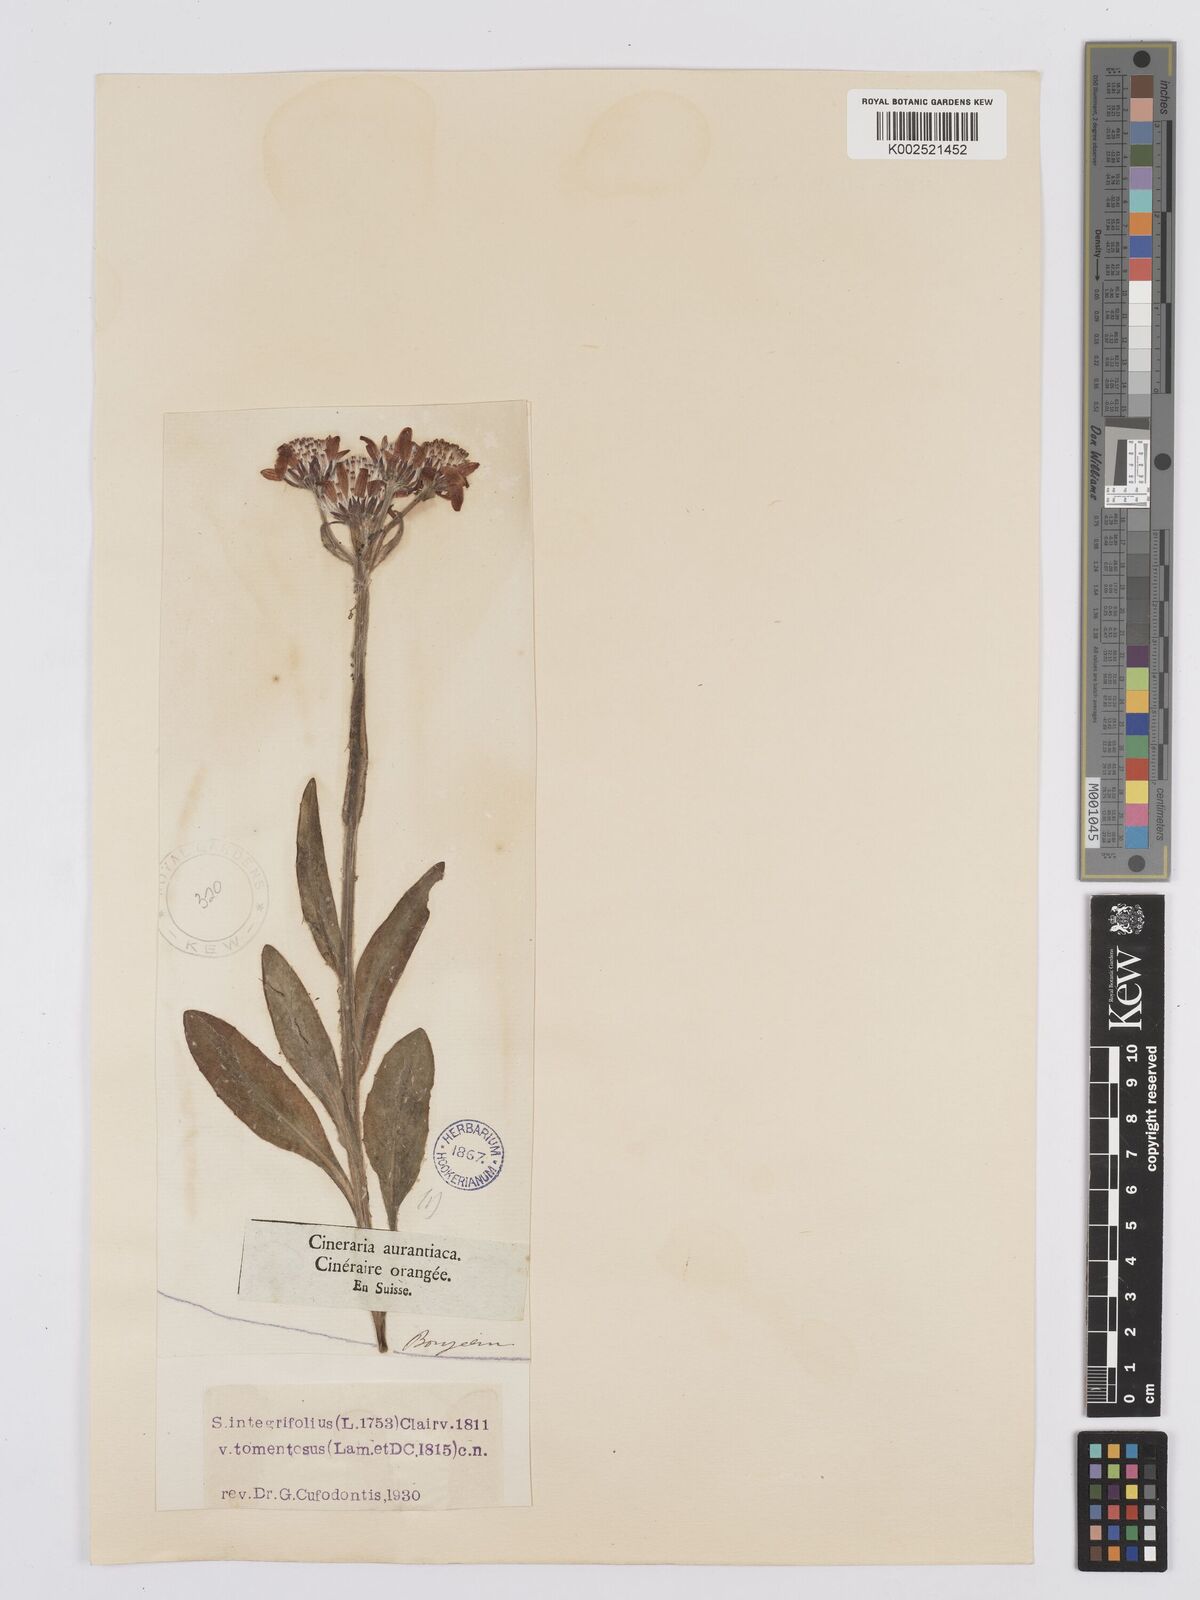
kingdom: Plantae
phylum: Tracheophyta
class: Magnoliopsida
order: Asterales
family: Asteraceae
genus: Tephroseris
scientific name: Tephroseris integrifolia
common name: Field fleawort
